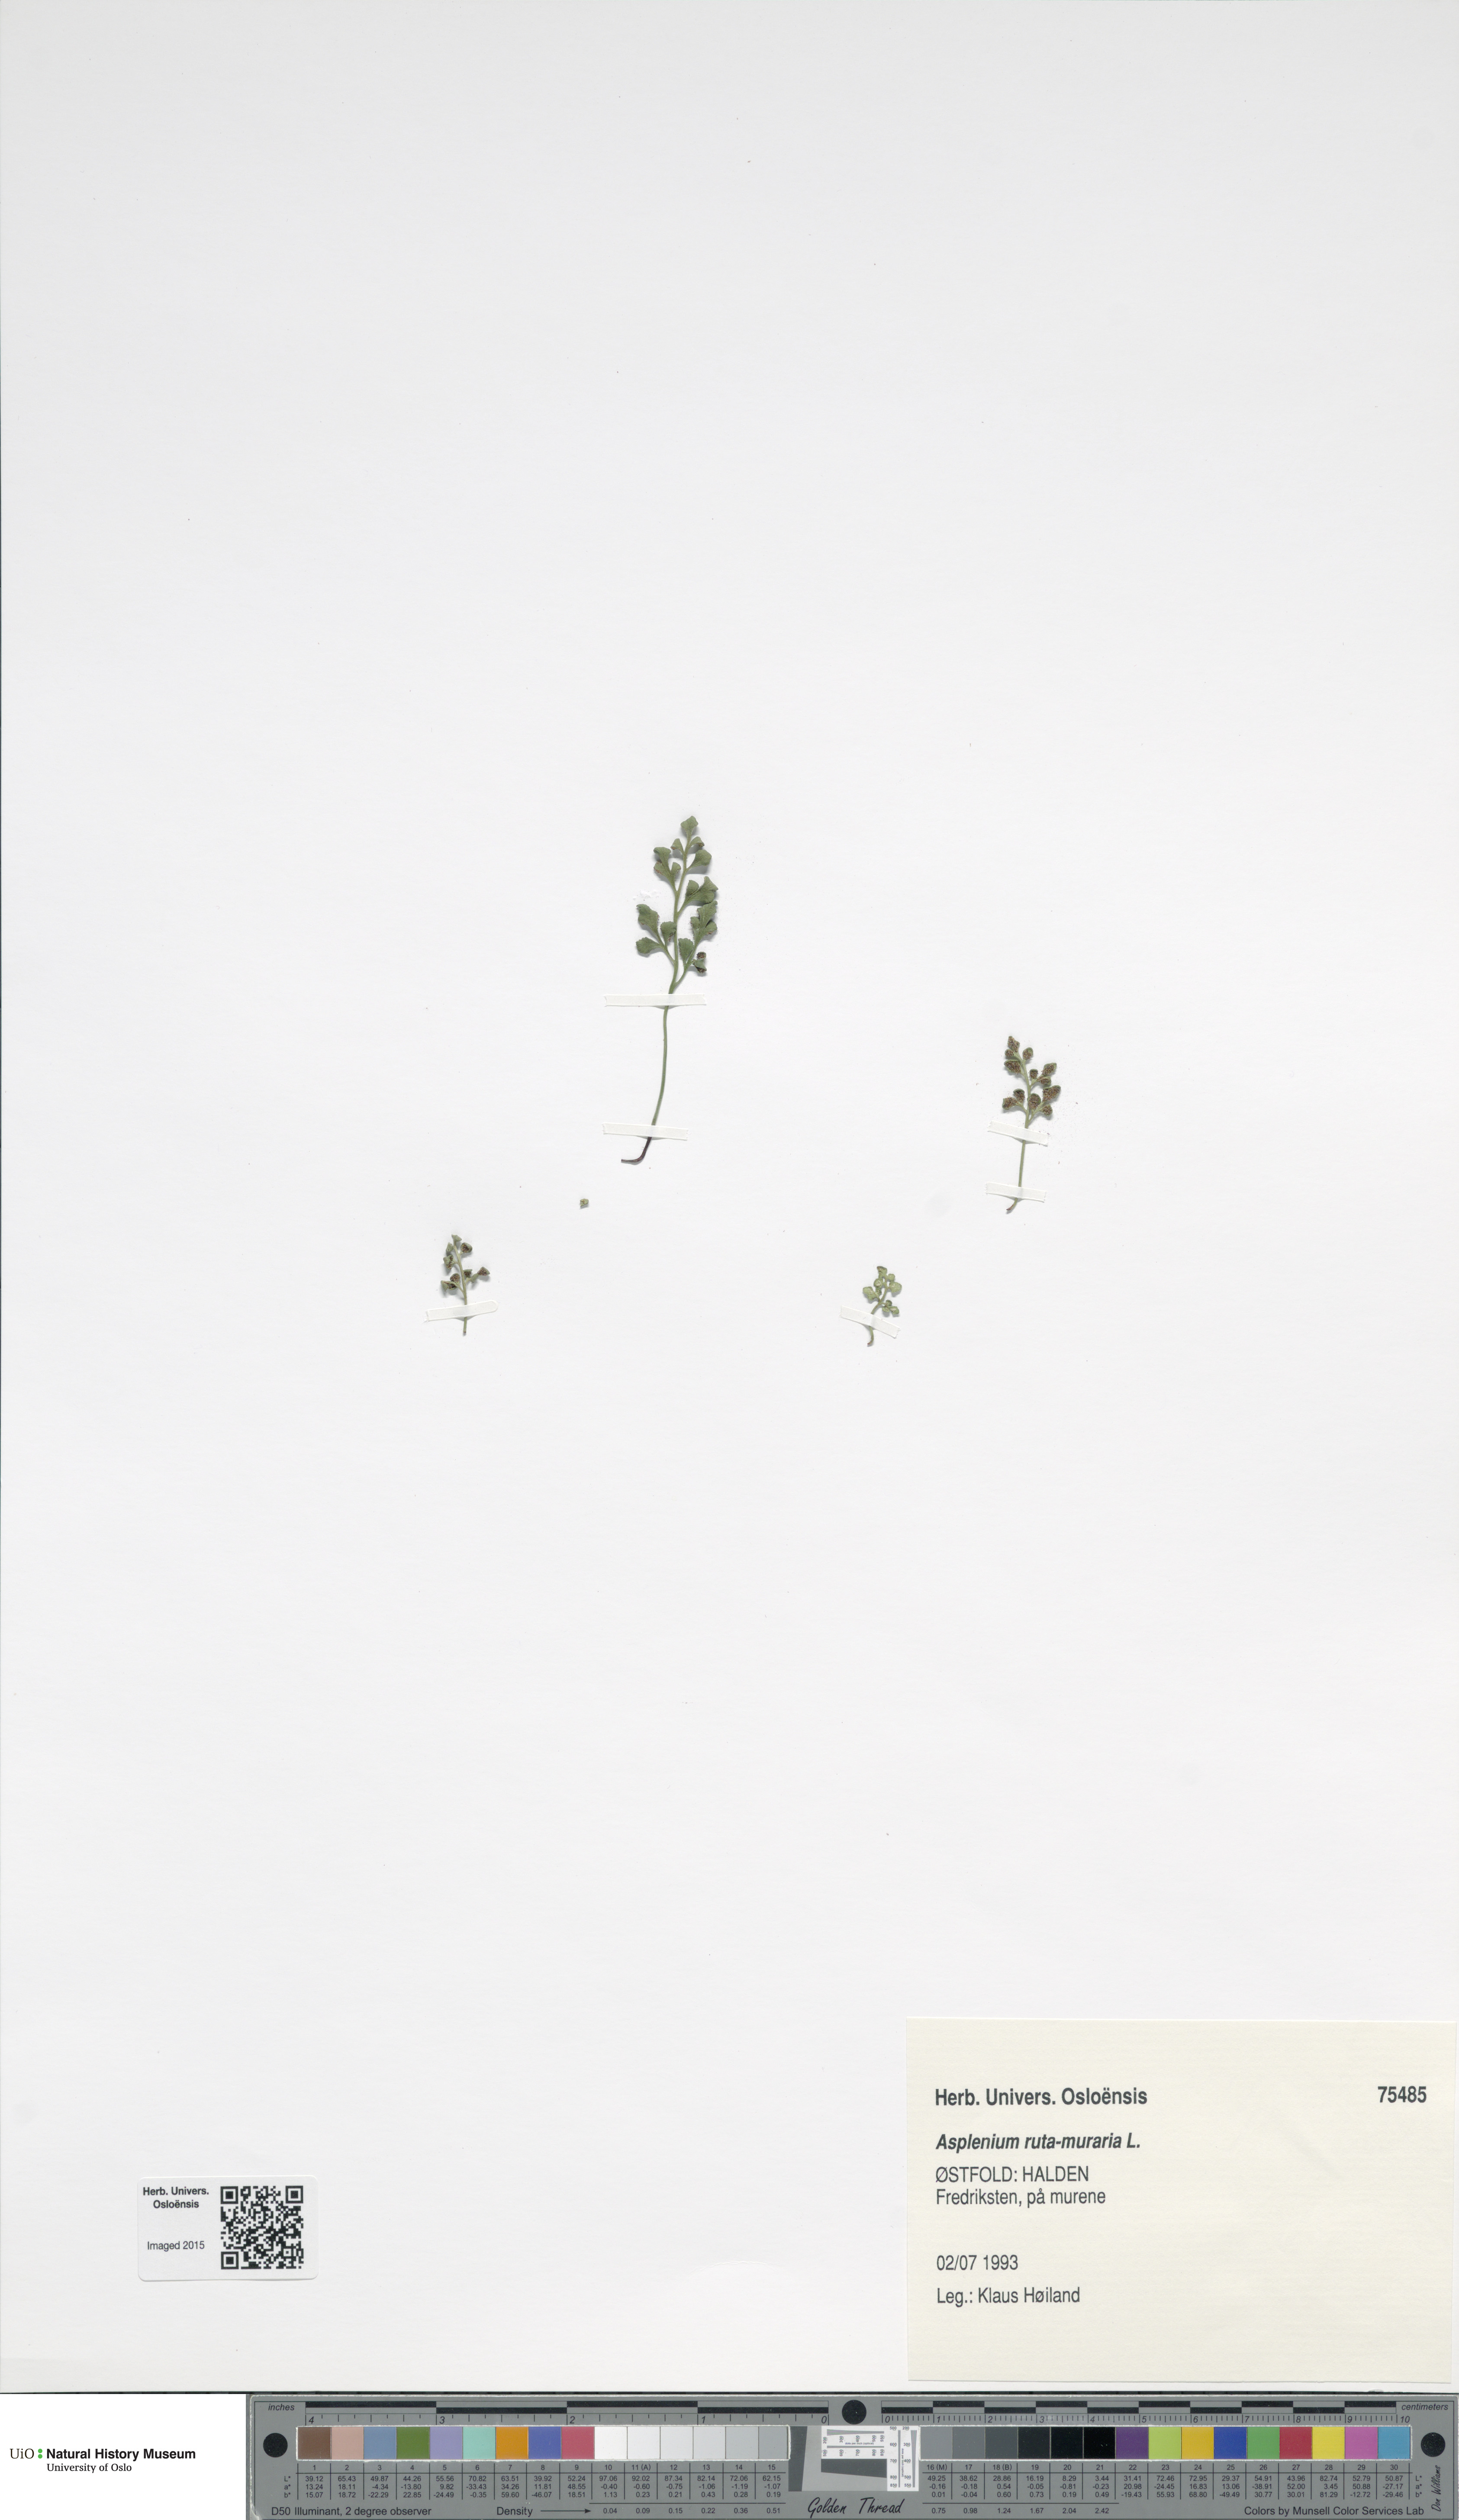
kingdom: Plantae
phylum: Tracheophyta
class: Polypodiopsida
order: Polypodiales
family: Aspleniaceae
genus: Asplenium
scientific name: Asplenium ruta-muraria
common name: Wall-rue
